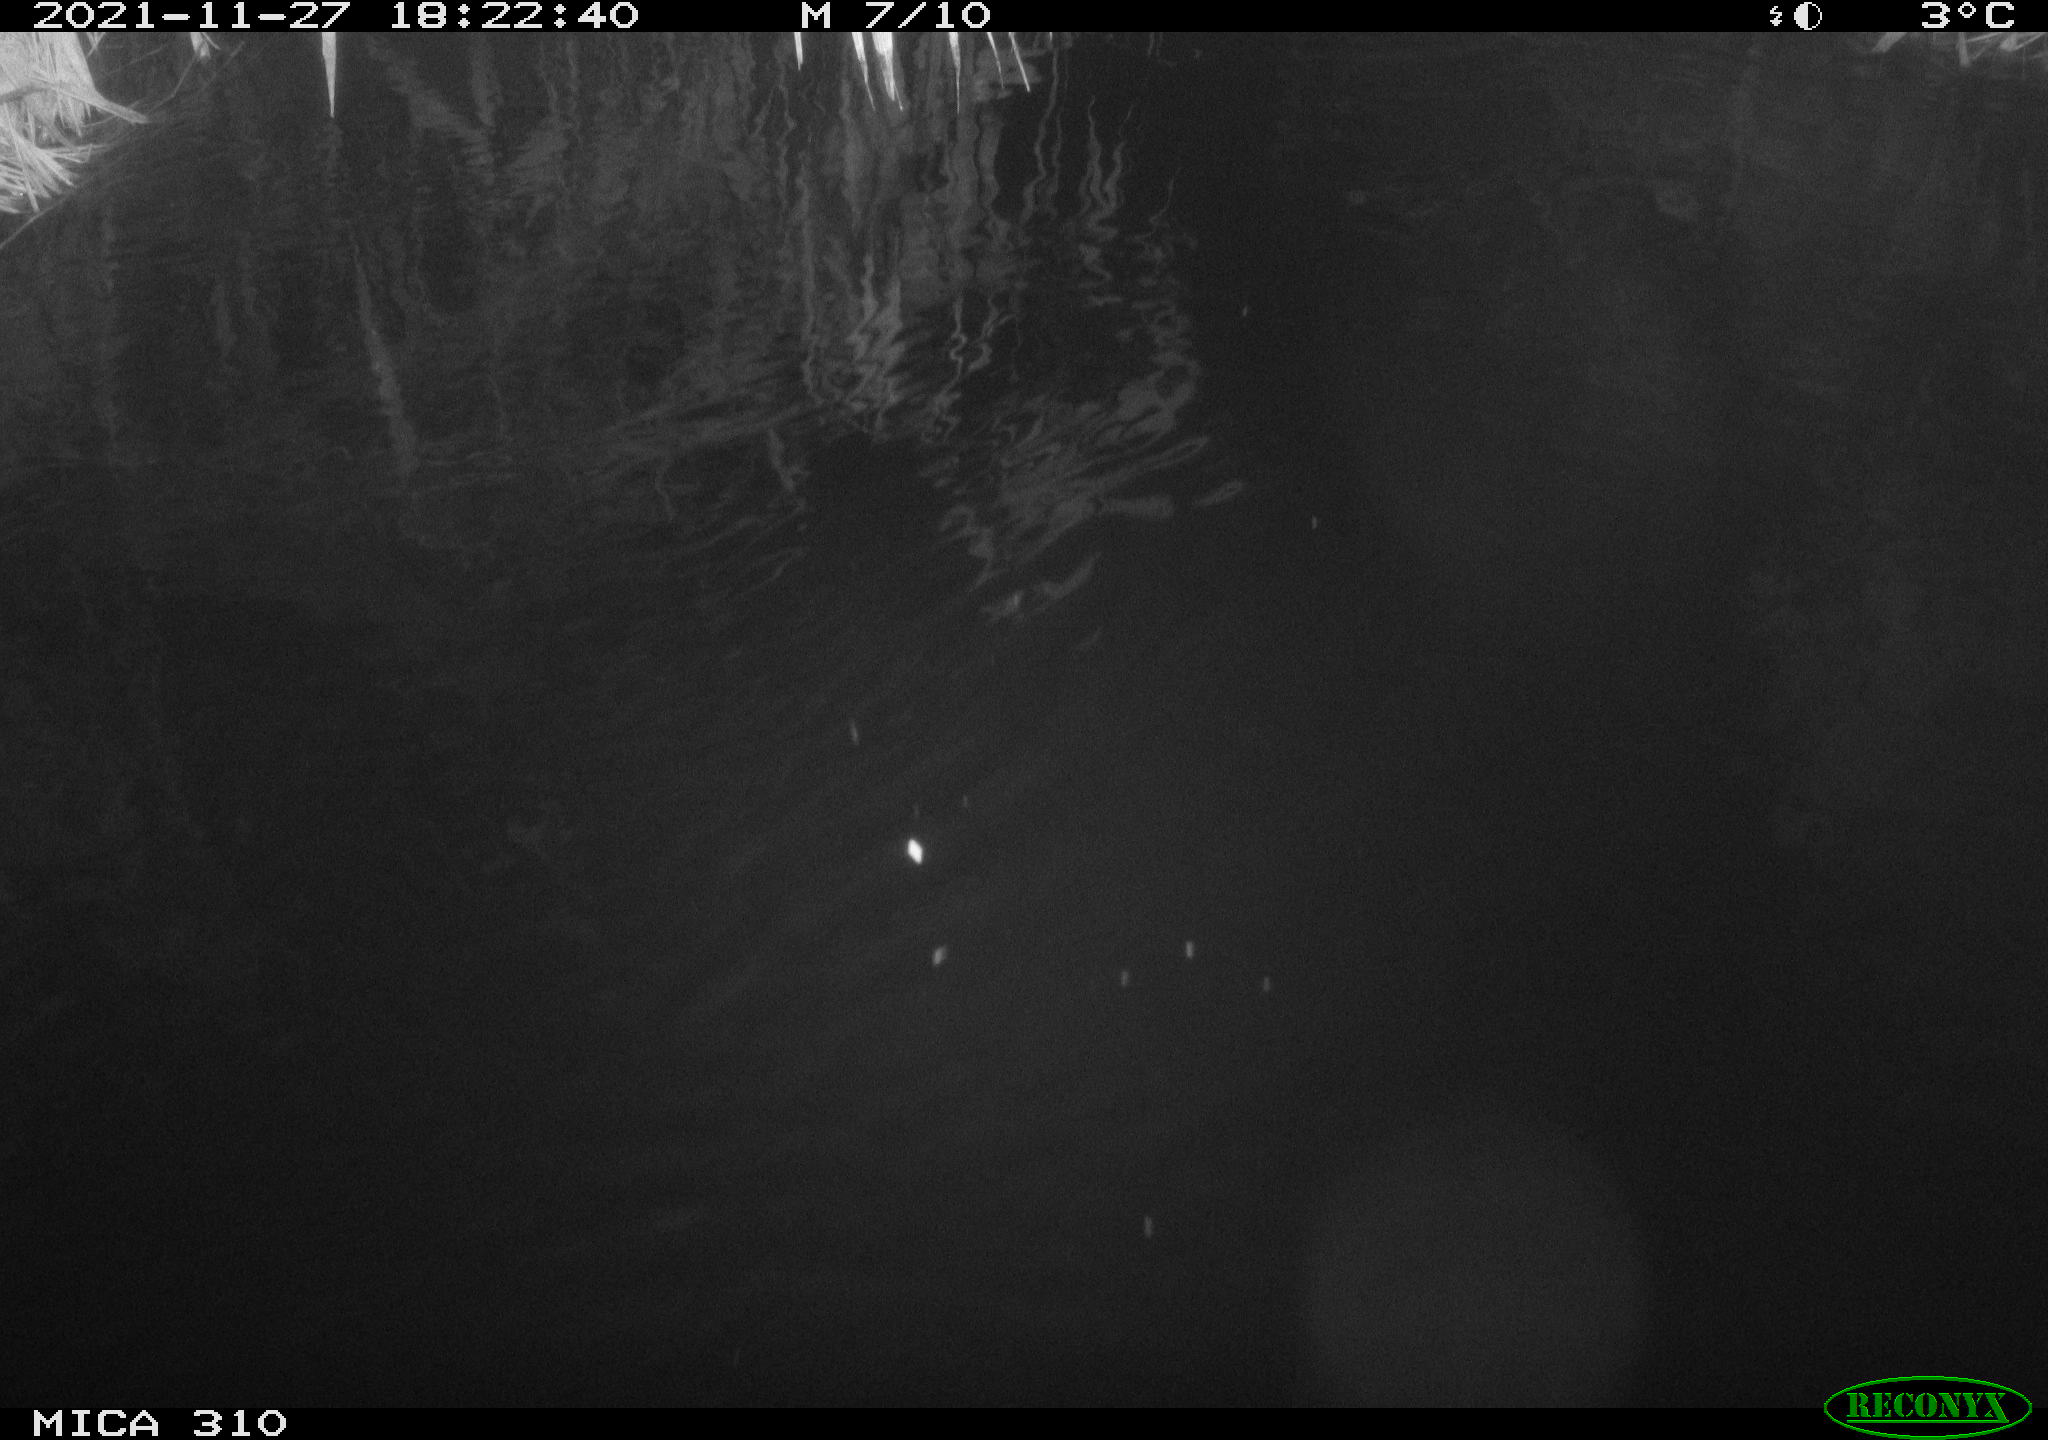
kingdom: Animalia
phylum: Chordata
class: Mammalia
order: Rodentia
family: Muridae
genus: Rattus
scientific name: Rattus norvegicus
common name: Brown rat
